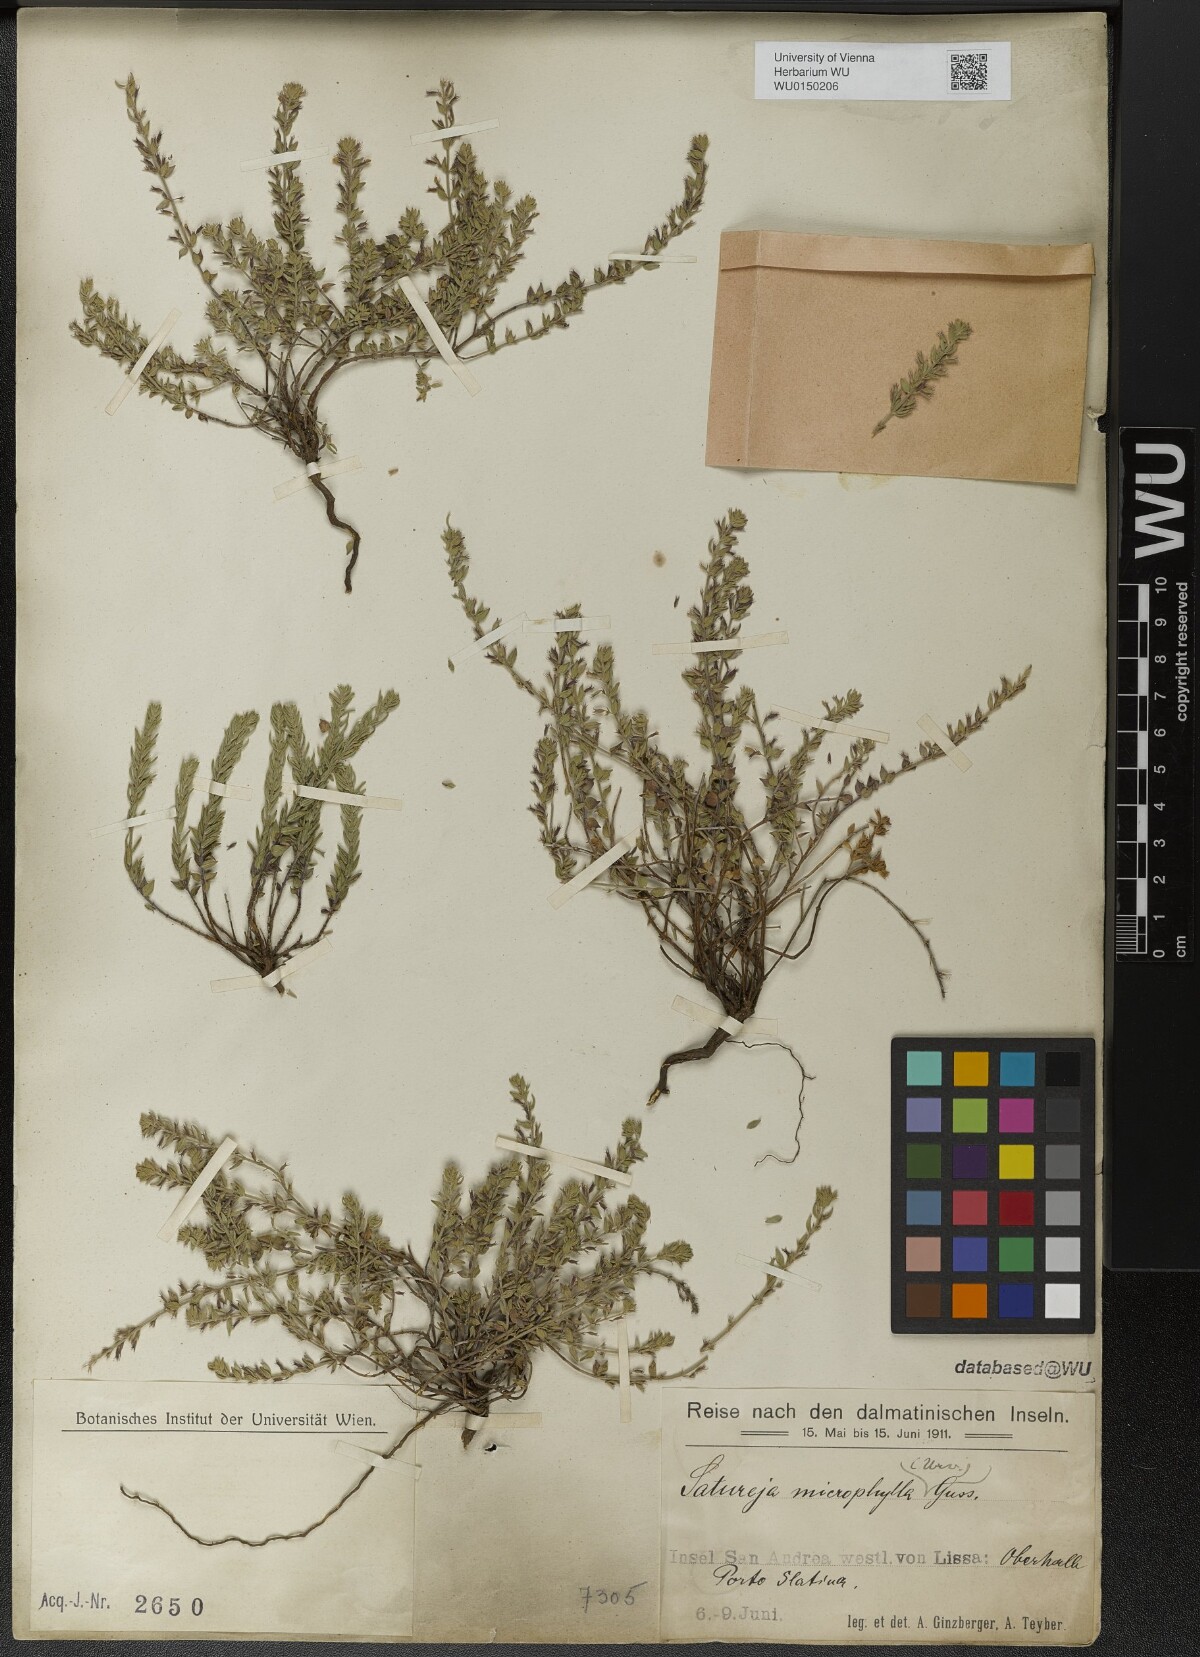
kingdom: Plantae
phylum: Tracheophyta
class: Magnoliopsida
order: Lamiales
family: Lamiaceae
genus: Micromeria
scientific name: Micromeria microphylla
